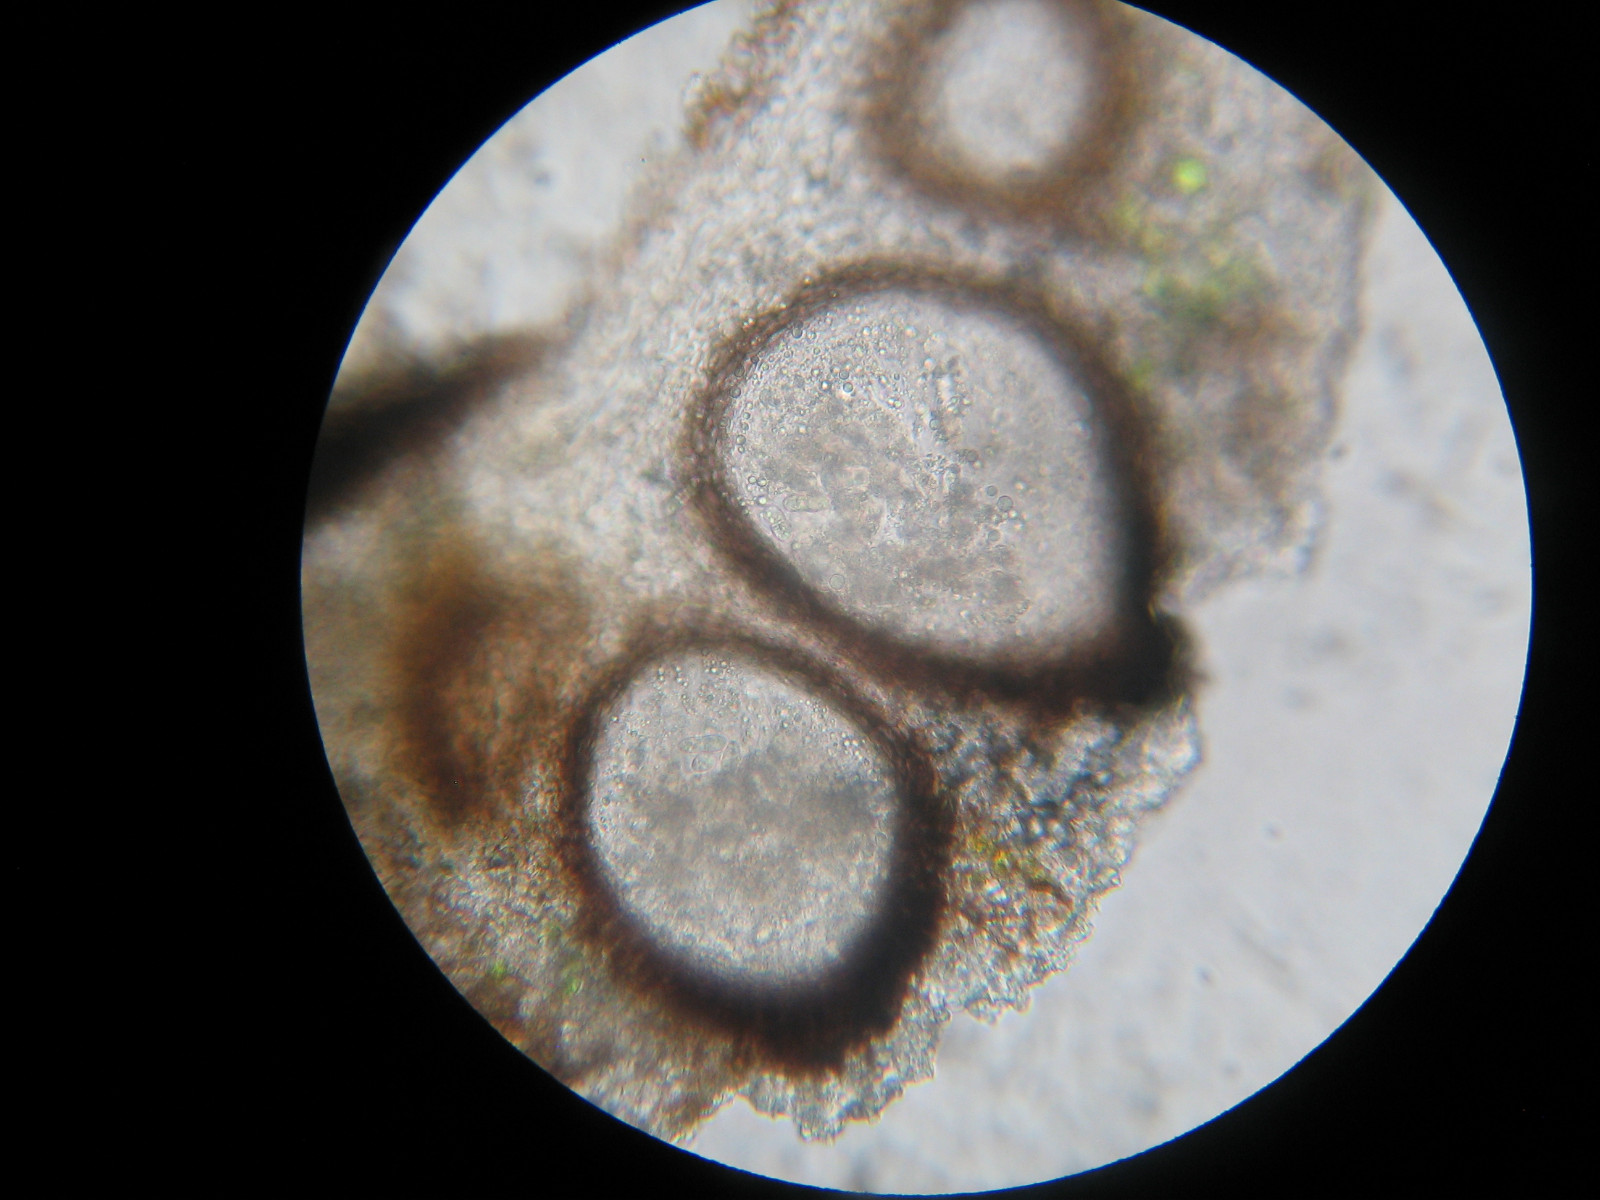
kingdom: Fungi
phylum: Ascomycota
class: Sordariomycetes
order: Phyllachorales
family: Phyllachoraceae
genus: Lichenochora
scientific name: Lichenochora obscuroides
